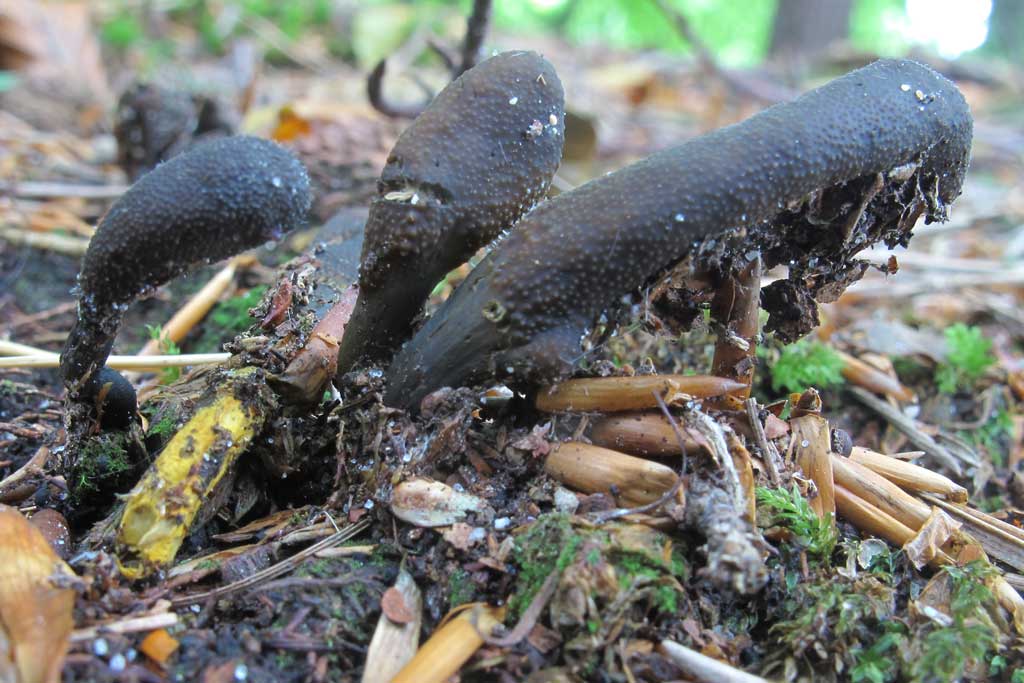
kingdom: Fungi
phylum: Ascomycota
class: Sordariomycetes
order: Hypocreales
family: Ophiocordycipitaceae
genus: Tolypocladium
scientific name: Tolypocladium ophioglossoides
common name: slank snyltekølle
